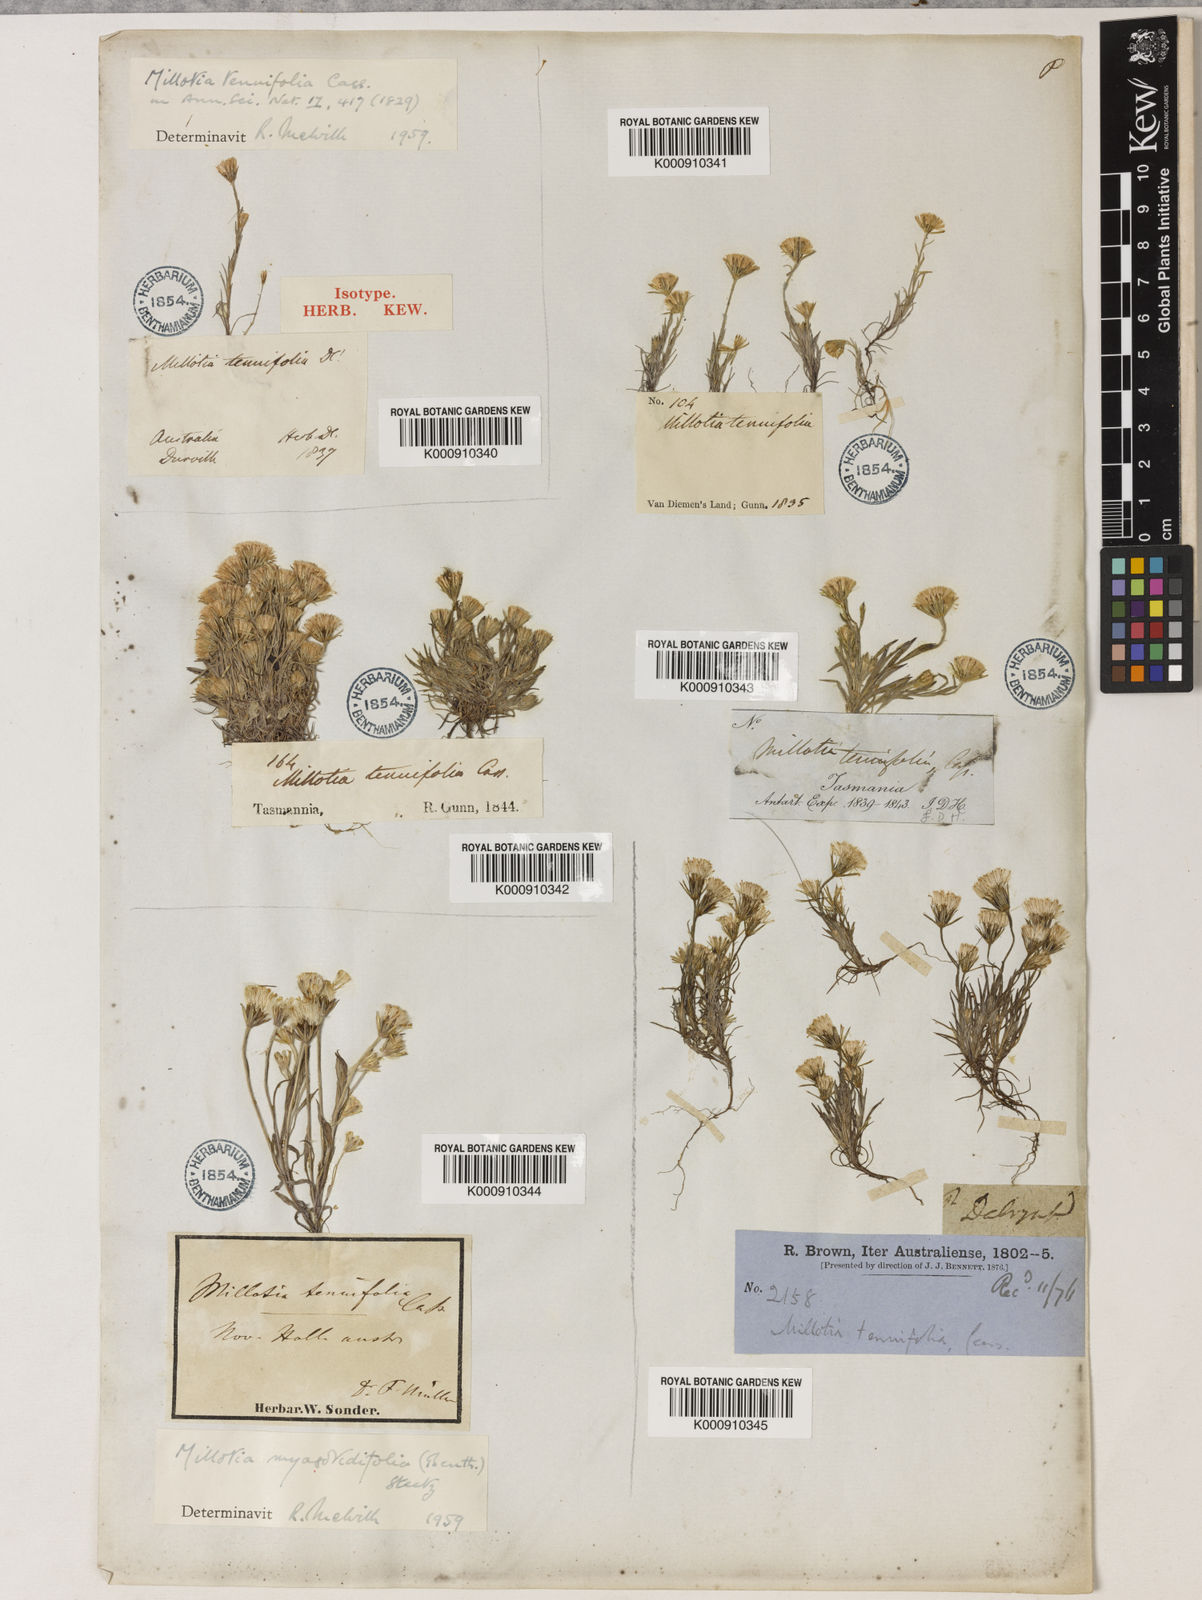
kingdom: Plantae
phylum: Tracheophyta
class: Magnoliopsida
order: Asterales
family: Asteraceae
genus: Millotia
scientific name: Millotia tenuifolia
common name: Soft millotia
